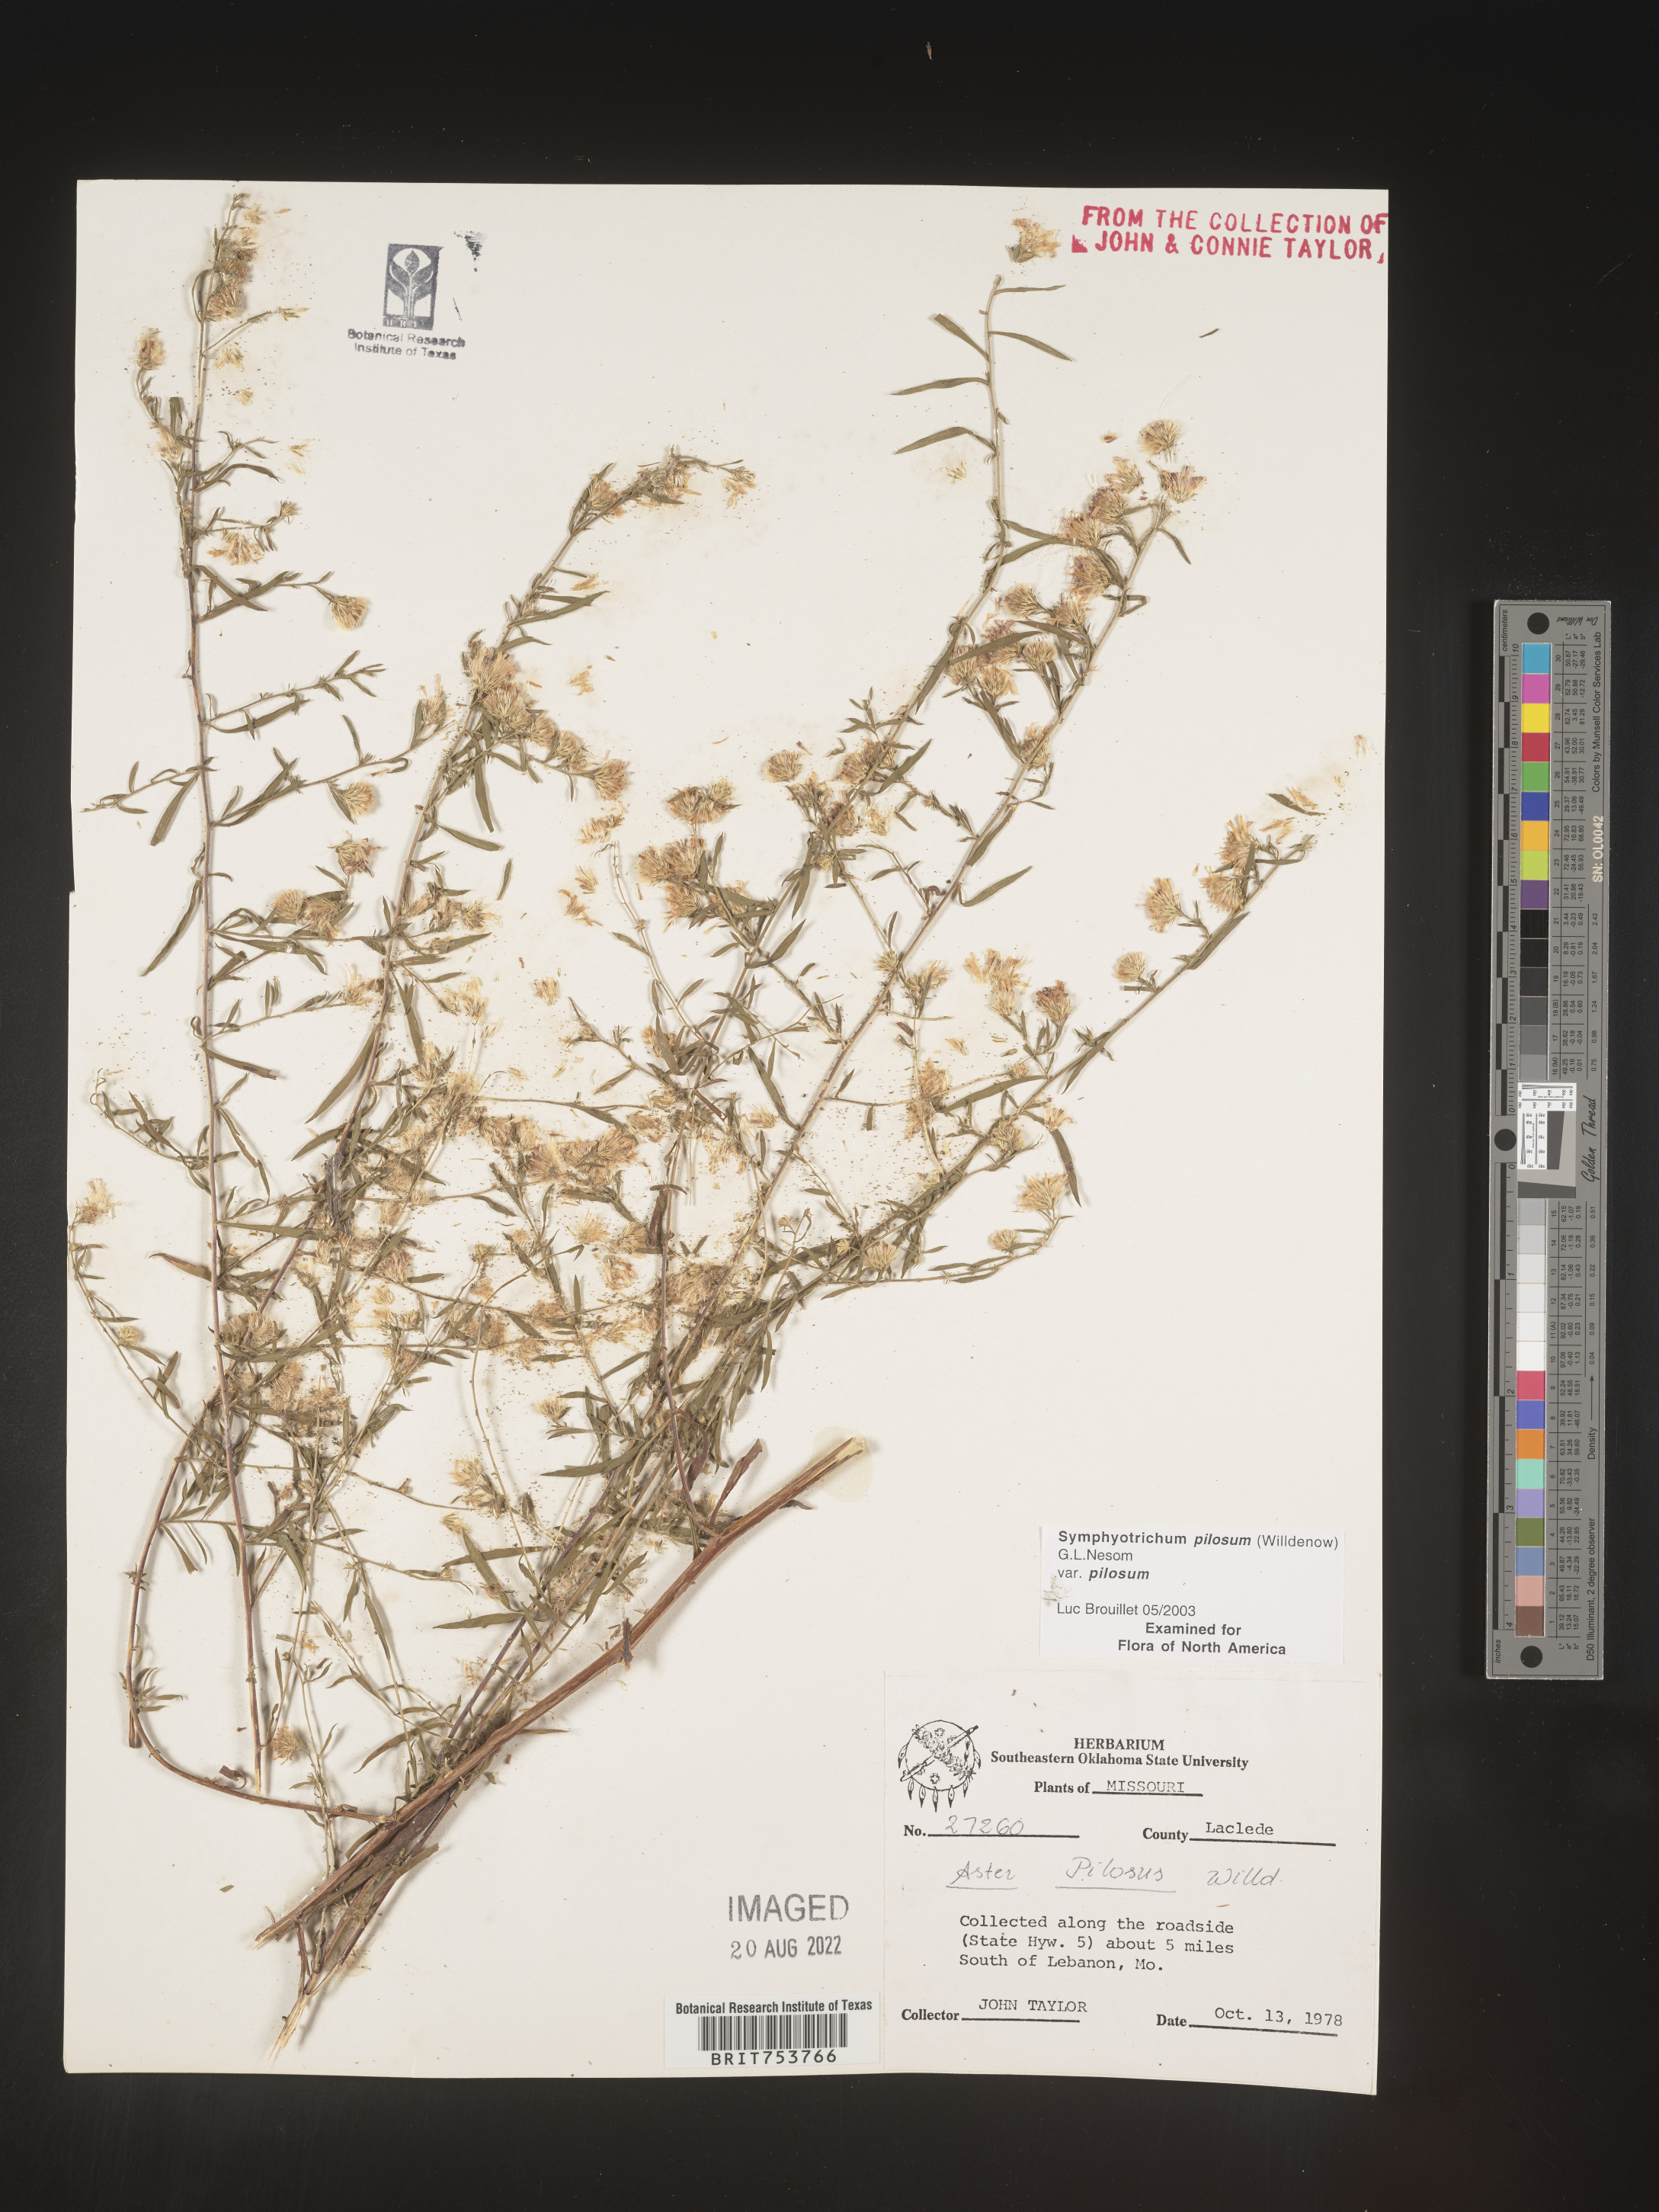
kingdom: Plantae
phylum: Tracheophyta
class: Magnoliopsida
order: Asterales
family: Asteraceae
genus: Symphyotrichum
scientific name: Symphyotrichum pilosum
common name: Awl aster
